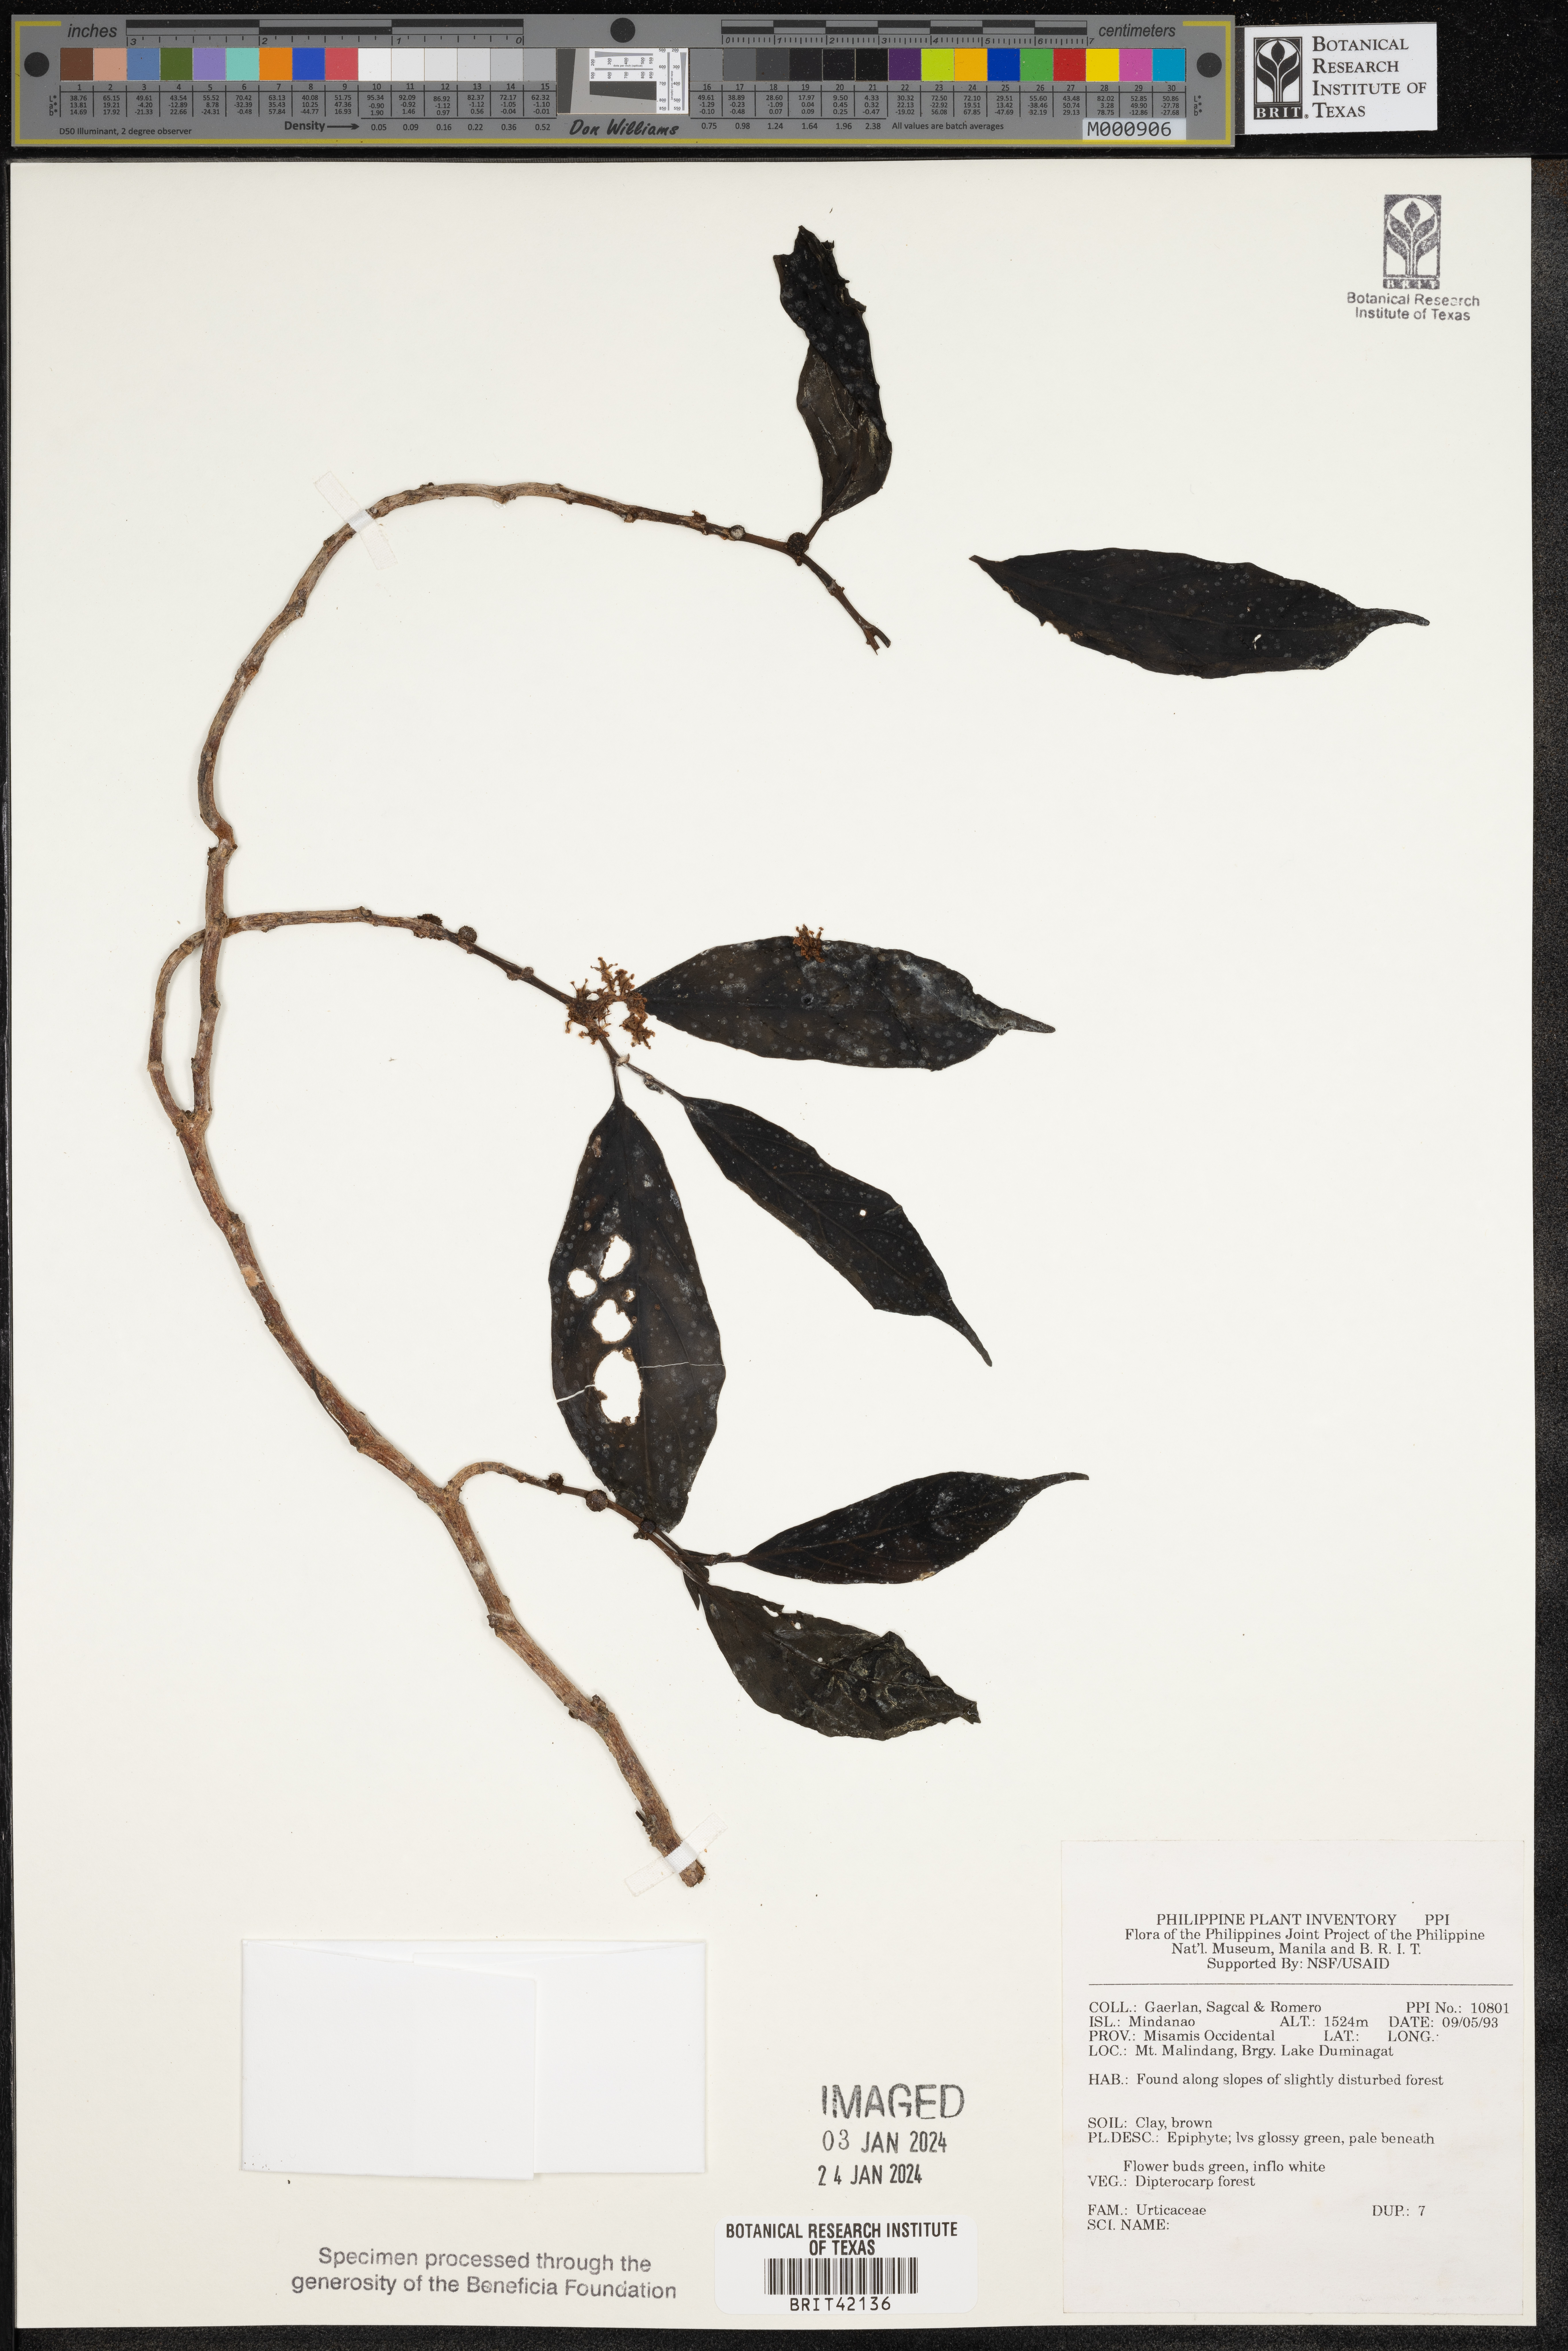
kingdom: Plantae
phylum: Tracheophyta
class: Magnoliopsida
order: Rosales
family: Urticaceae
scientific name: Urticaceae
